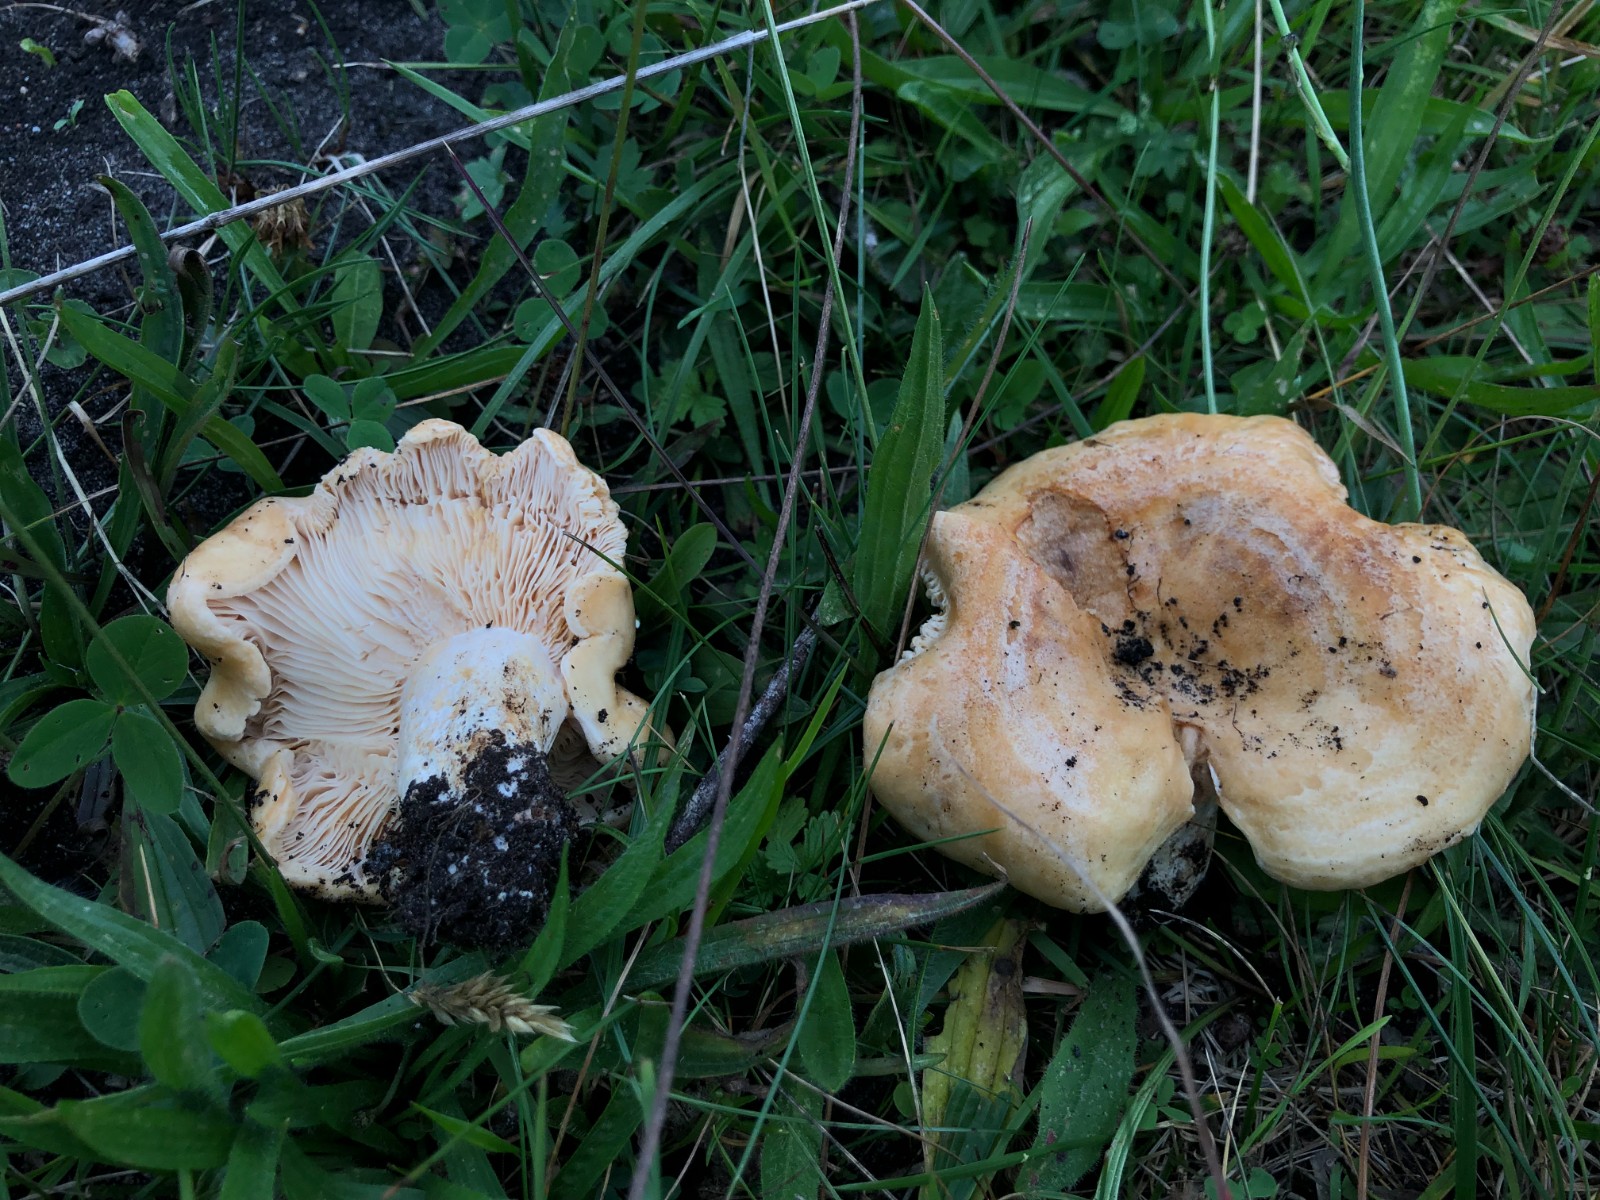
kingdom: Fungi
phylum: Basidiomycota
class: Agaricomycetes
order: Russulales
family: Russulaceae
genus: Lactarius
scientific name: Lactarius acerrimus
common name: brændende mælkehat
